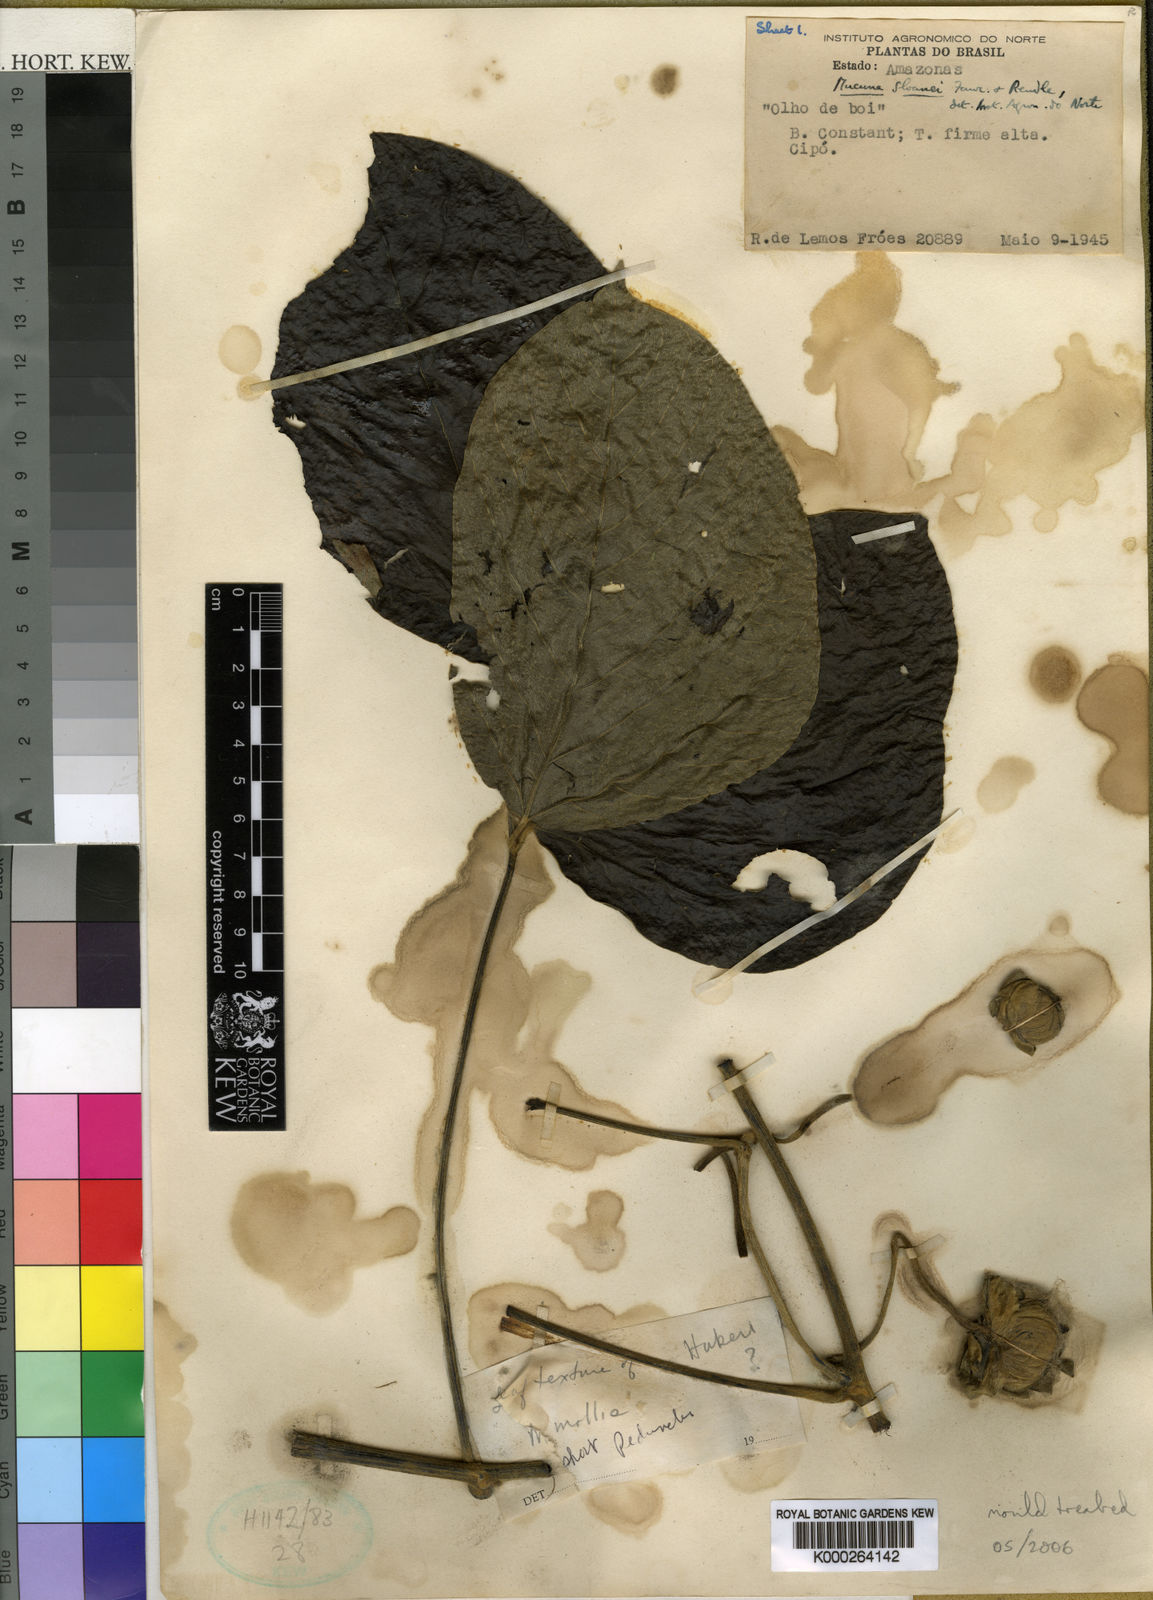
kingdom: Plantae
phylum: Tracheophyta
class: Magnoliopsida
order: Fabales
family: Fabaceae
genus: Mucuna
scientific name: Mucuna sloanei
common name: Horse-eye bean
